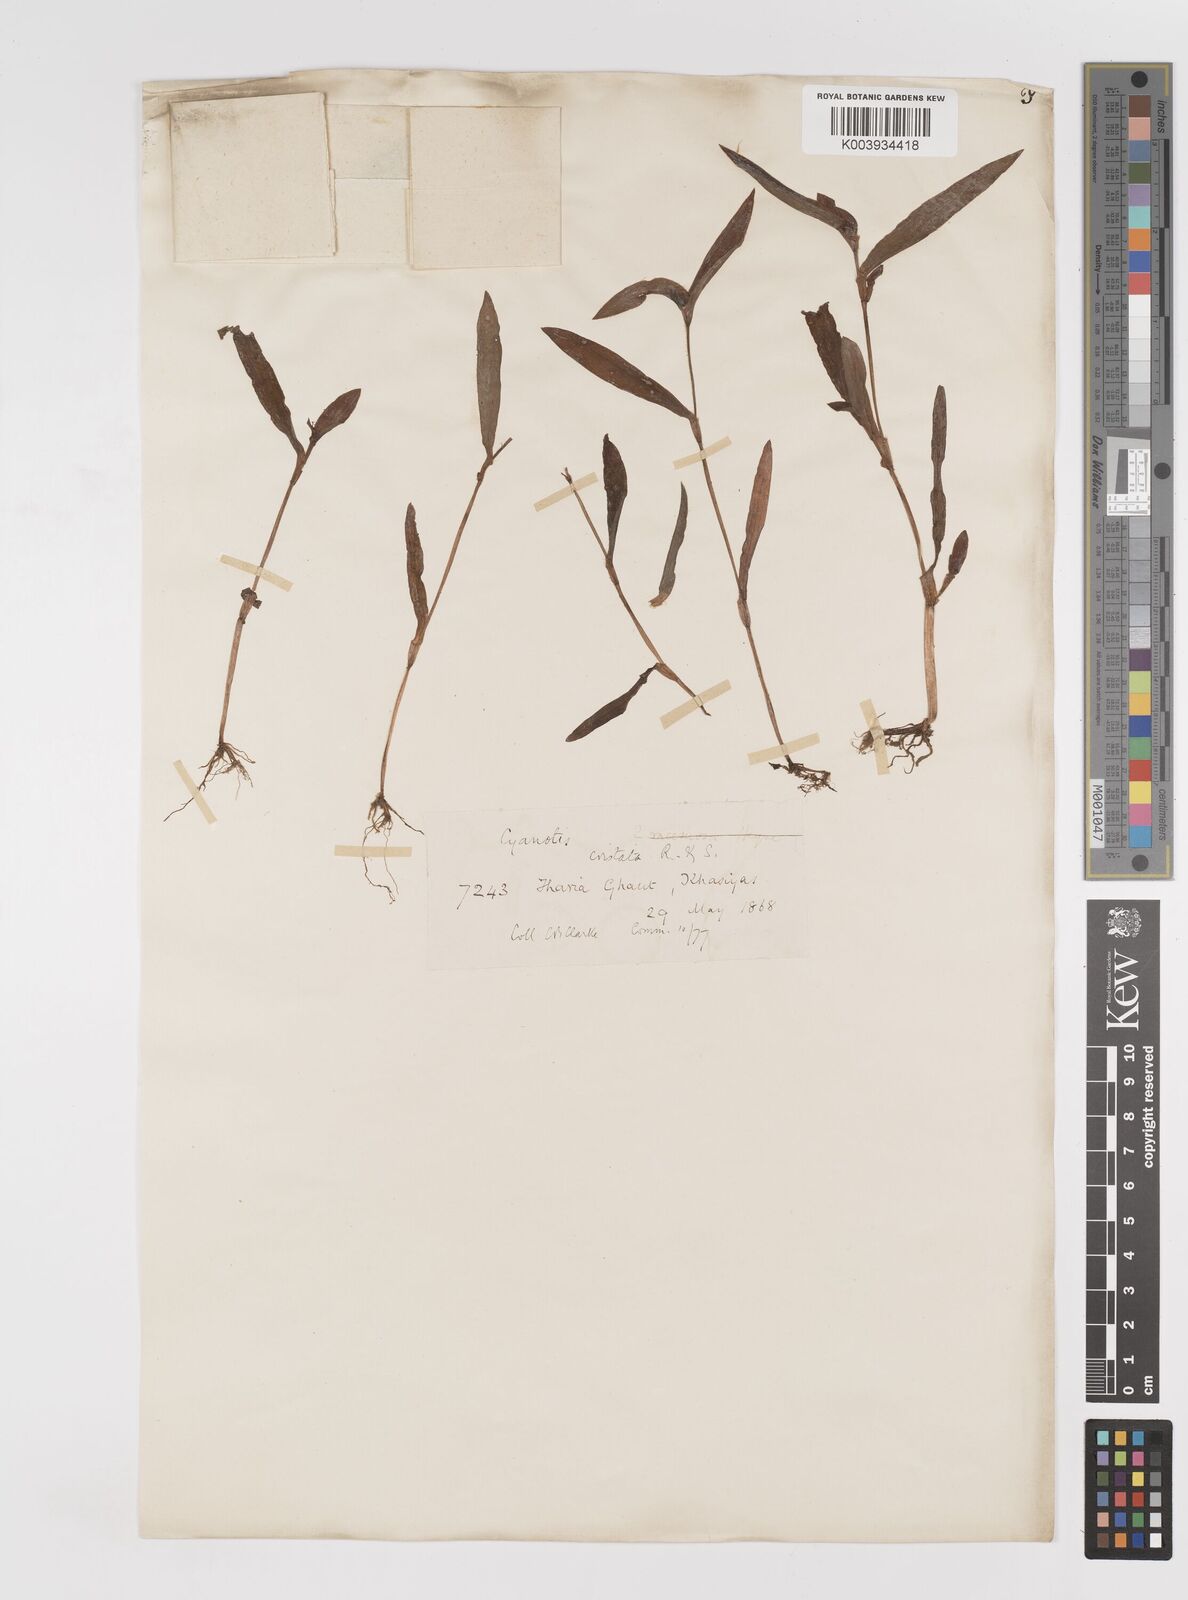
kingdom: Plantae
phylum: Tracheophyta
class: Liliopsida
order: Commelinales
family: Commelinaceae
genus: Cyanotis
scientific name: Cyanotis cristata
